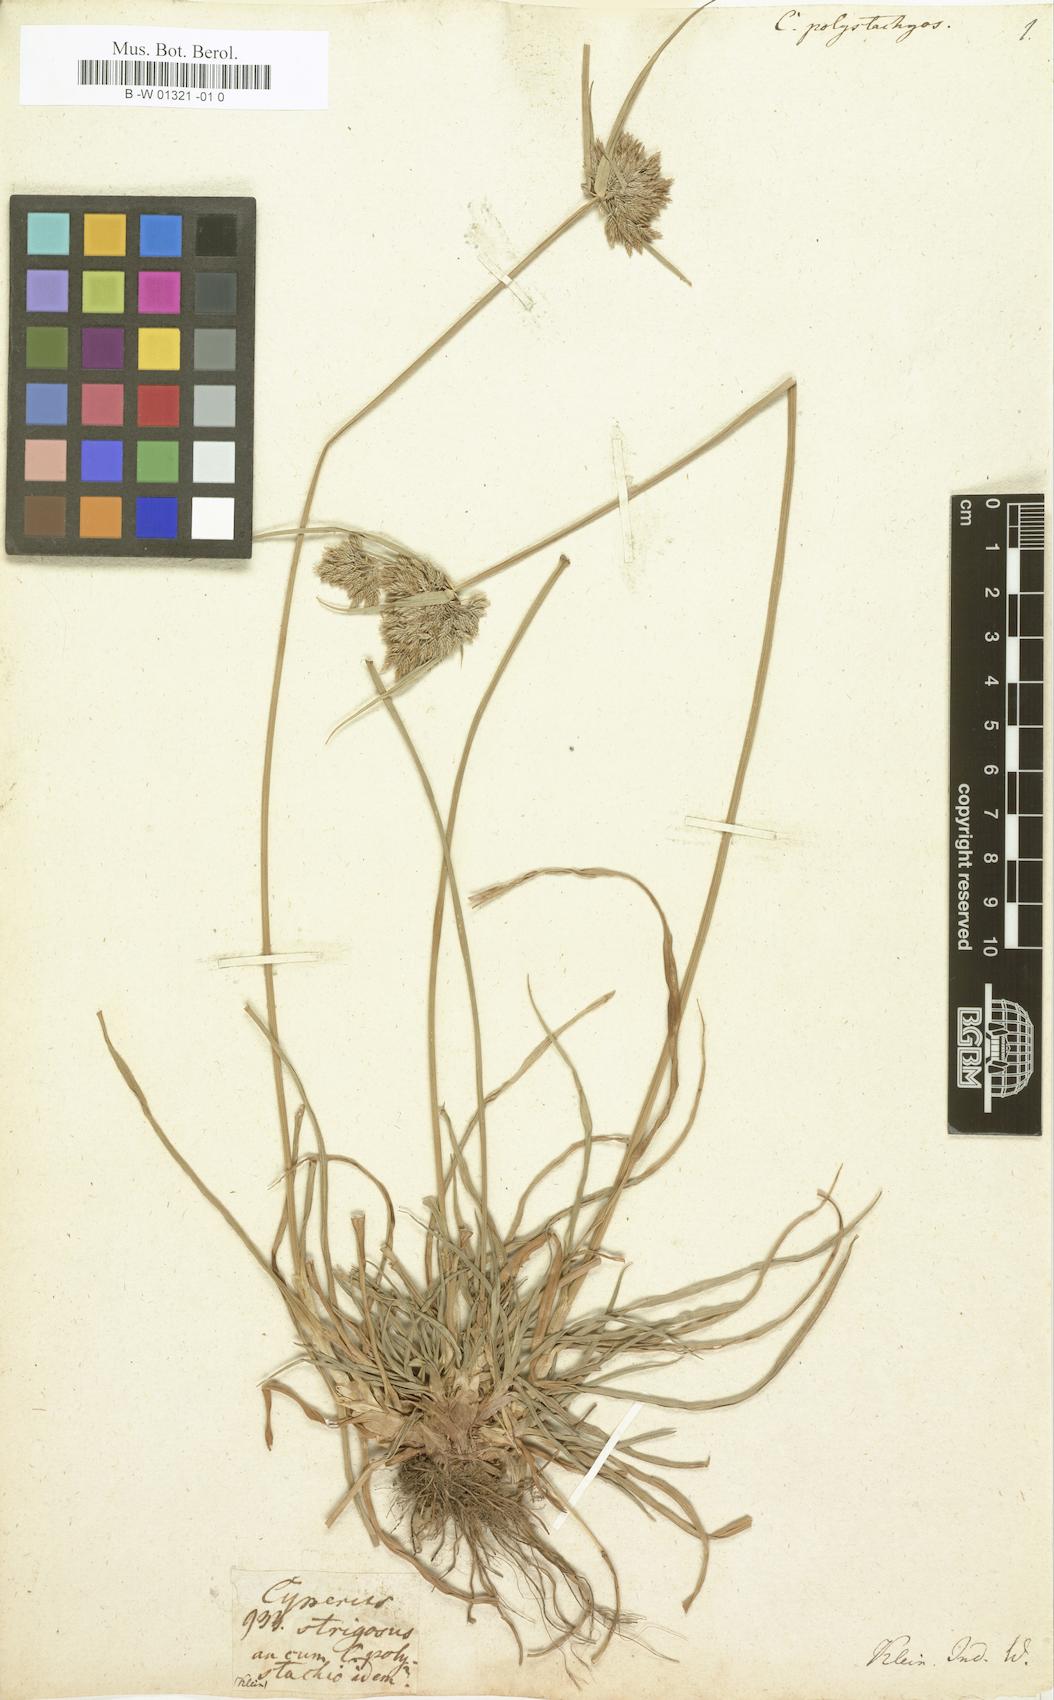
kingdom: Plantae
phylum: Tracheophyta
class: Liliopsida
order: Poales
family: Cyperaceae
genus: Cyperus
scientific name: Cyperus polystachyos
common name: Bunchy flat sedge
